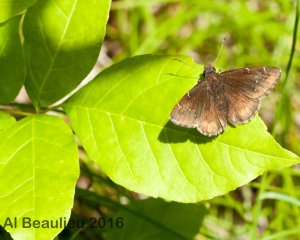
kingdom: Animalia
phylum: Arthropoda
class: Insecta
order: Lepidoptera
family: Hesperiidae
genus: Autochton
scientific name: Autochton
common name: Northern Cloudywing
